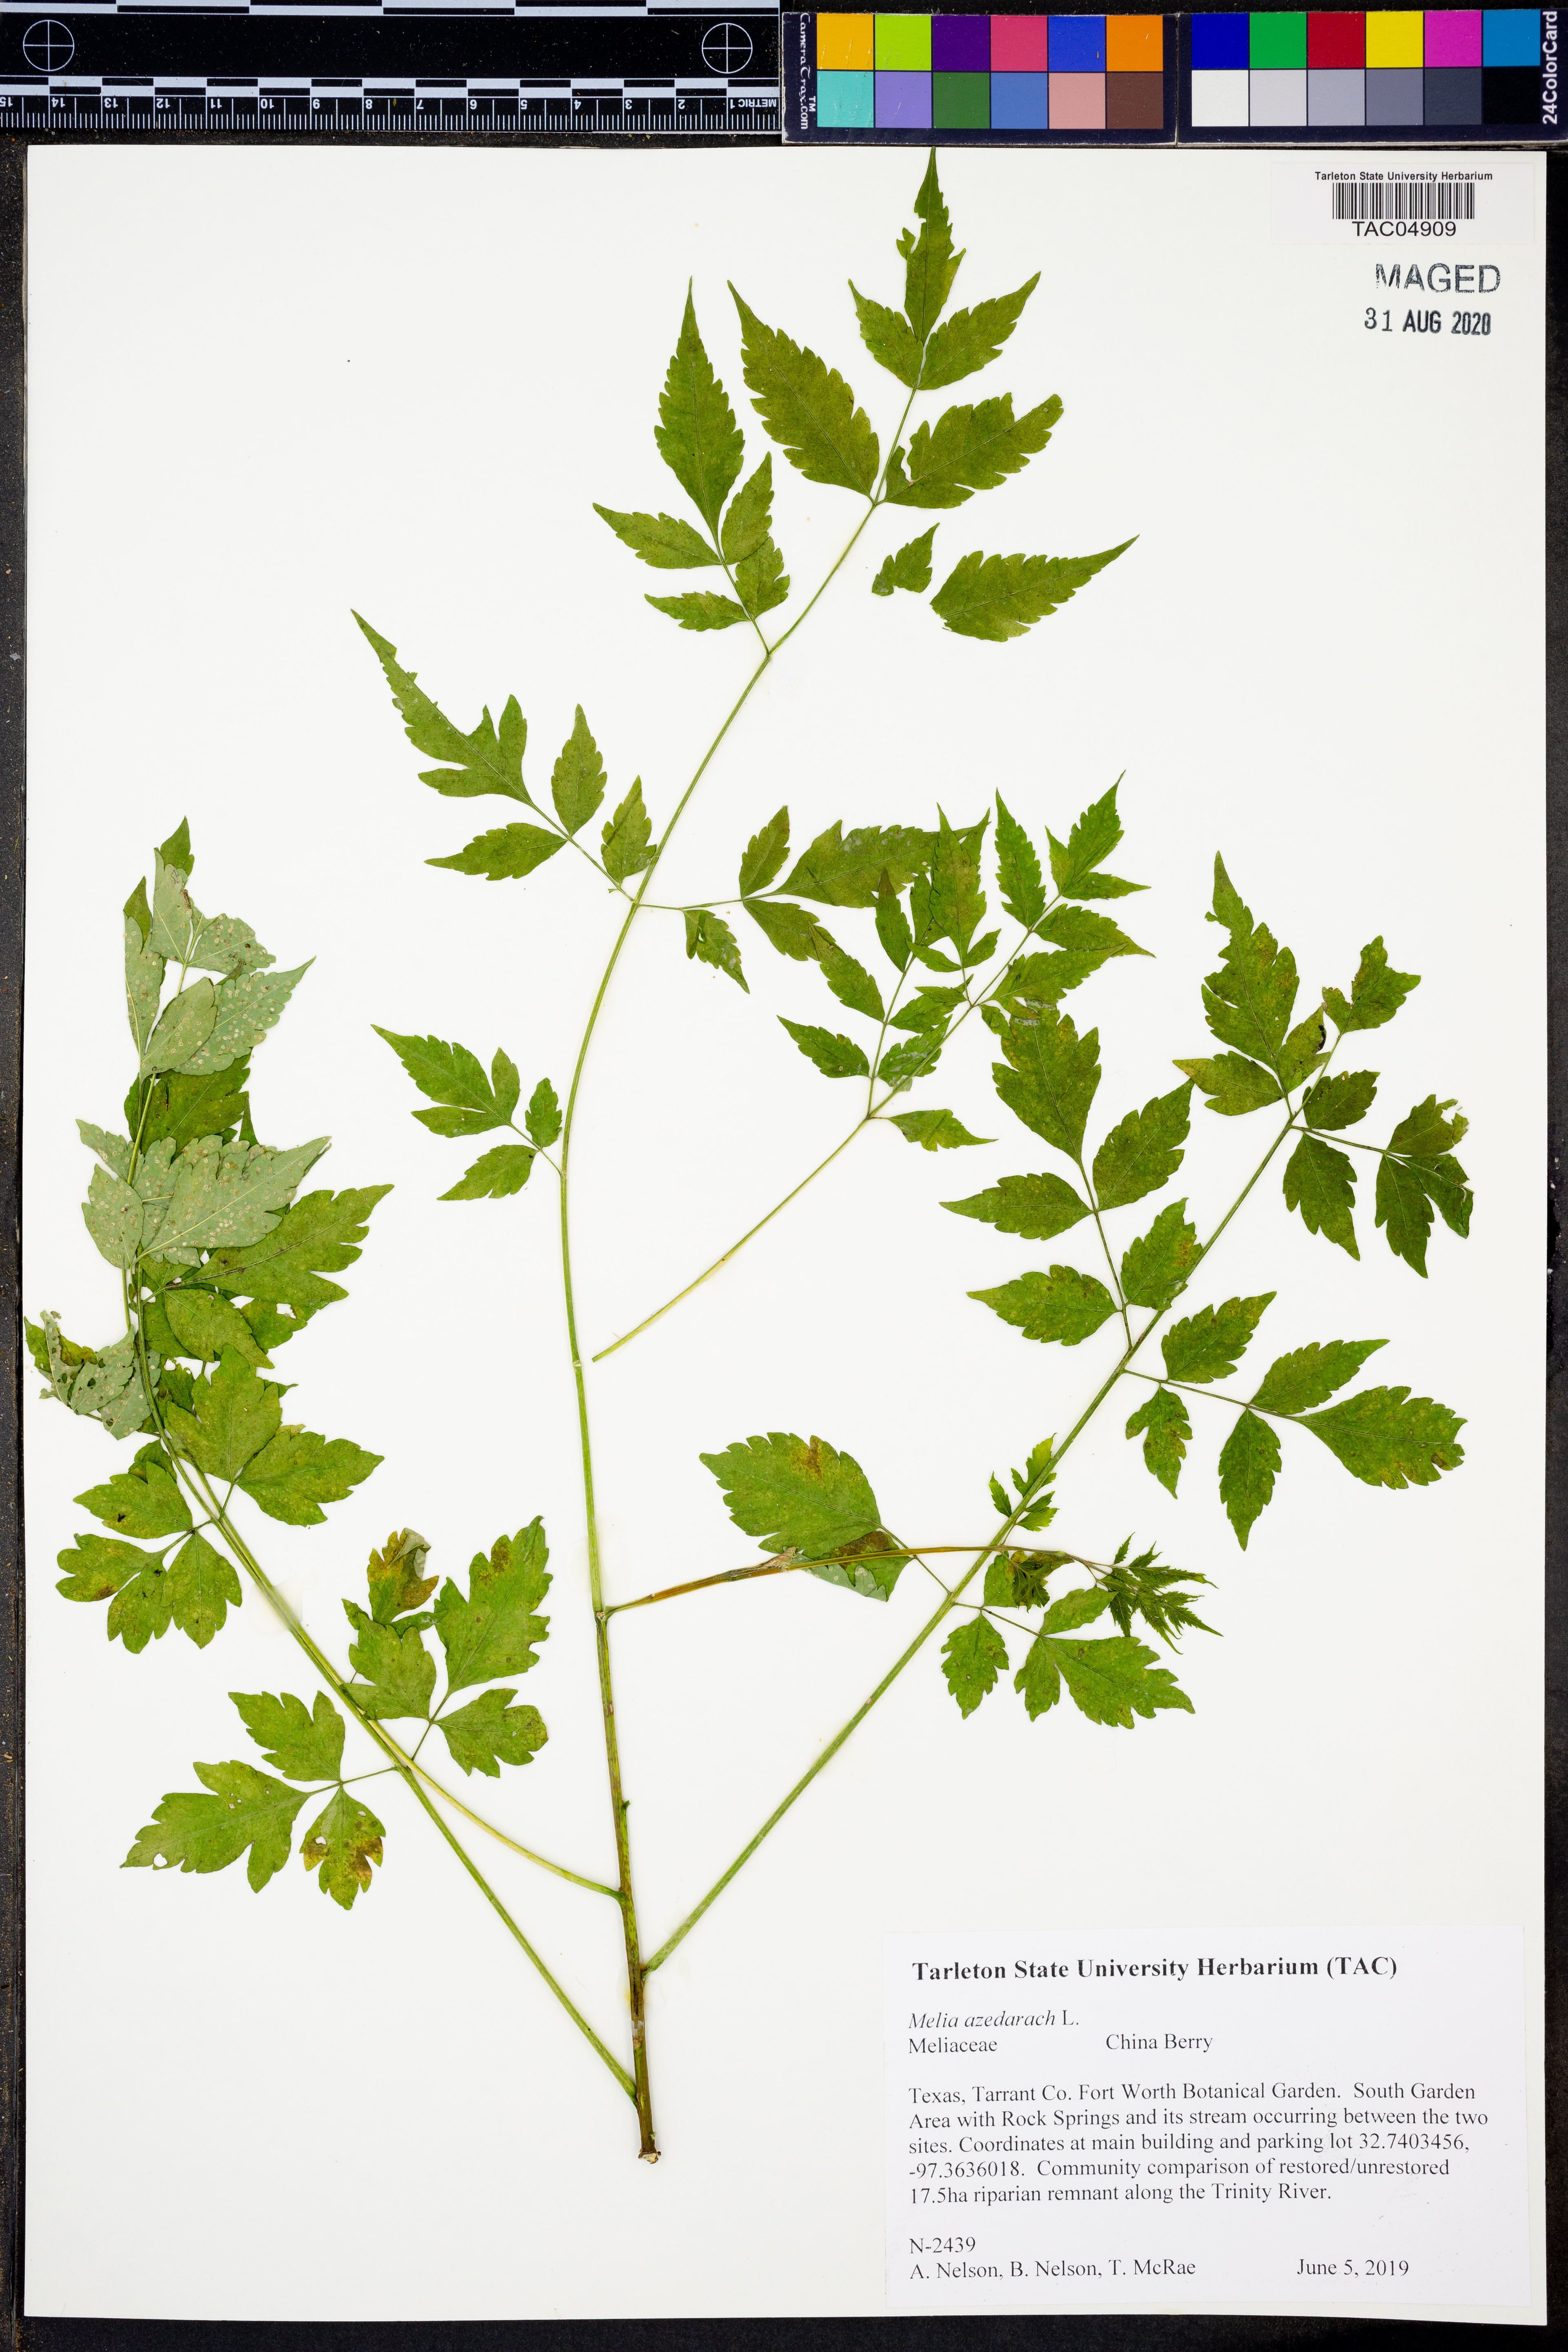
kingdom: Plantae
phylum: Tracheophyta
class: Magnoliopsida
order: Sapindales
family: Meliaceae
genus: Melia
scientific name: Melia azedarach
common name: Chinaberrytree
